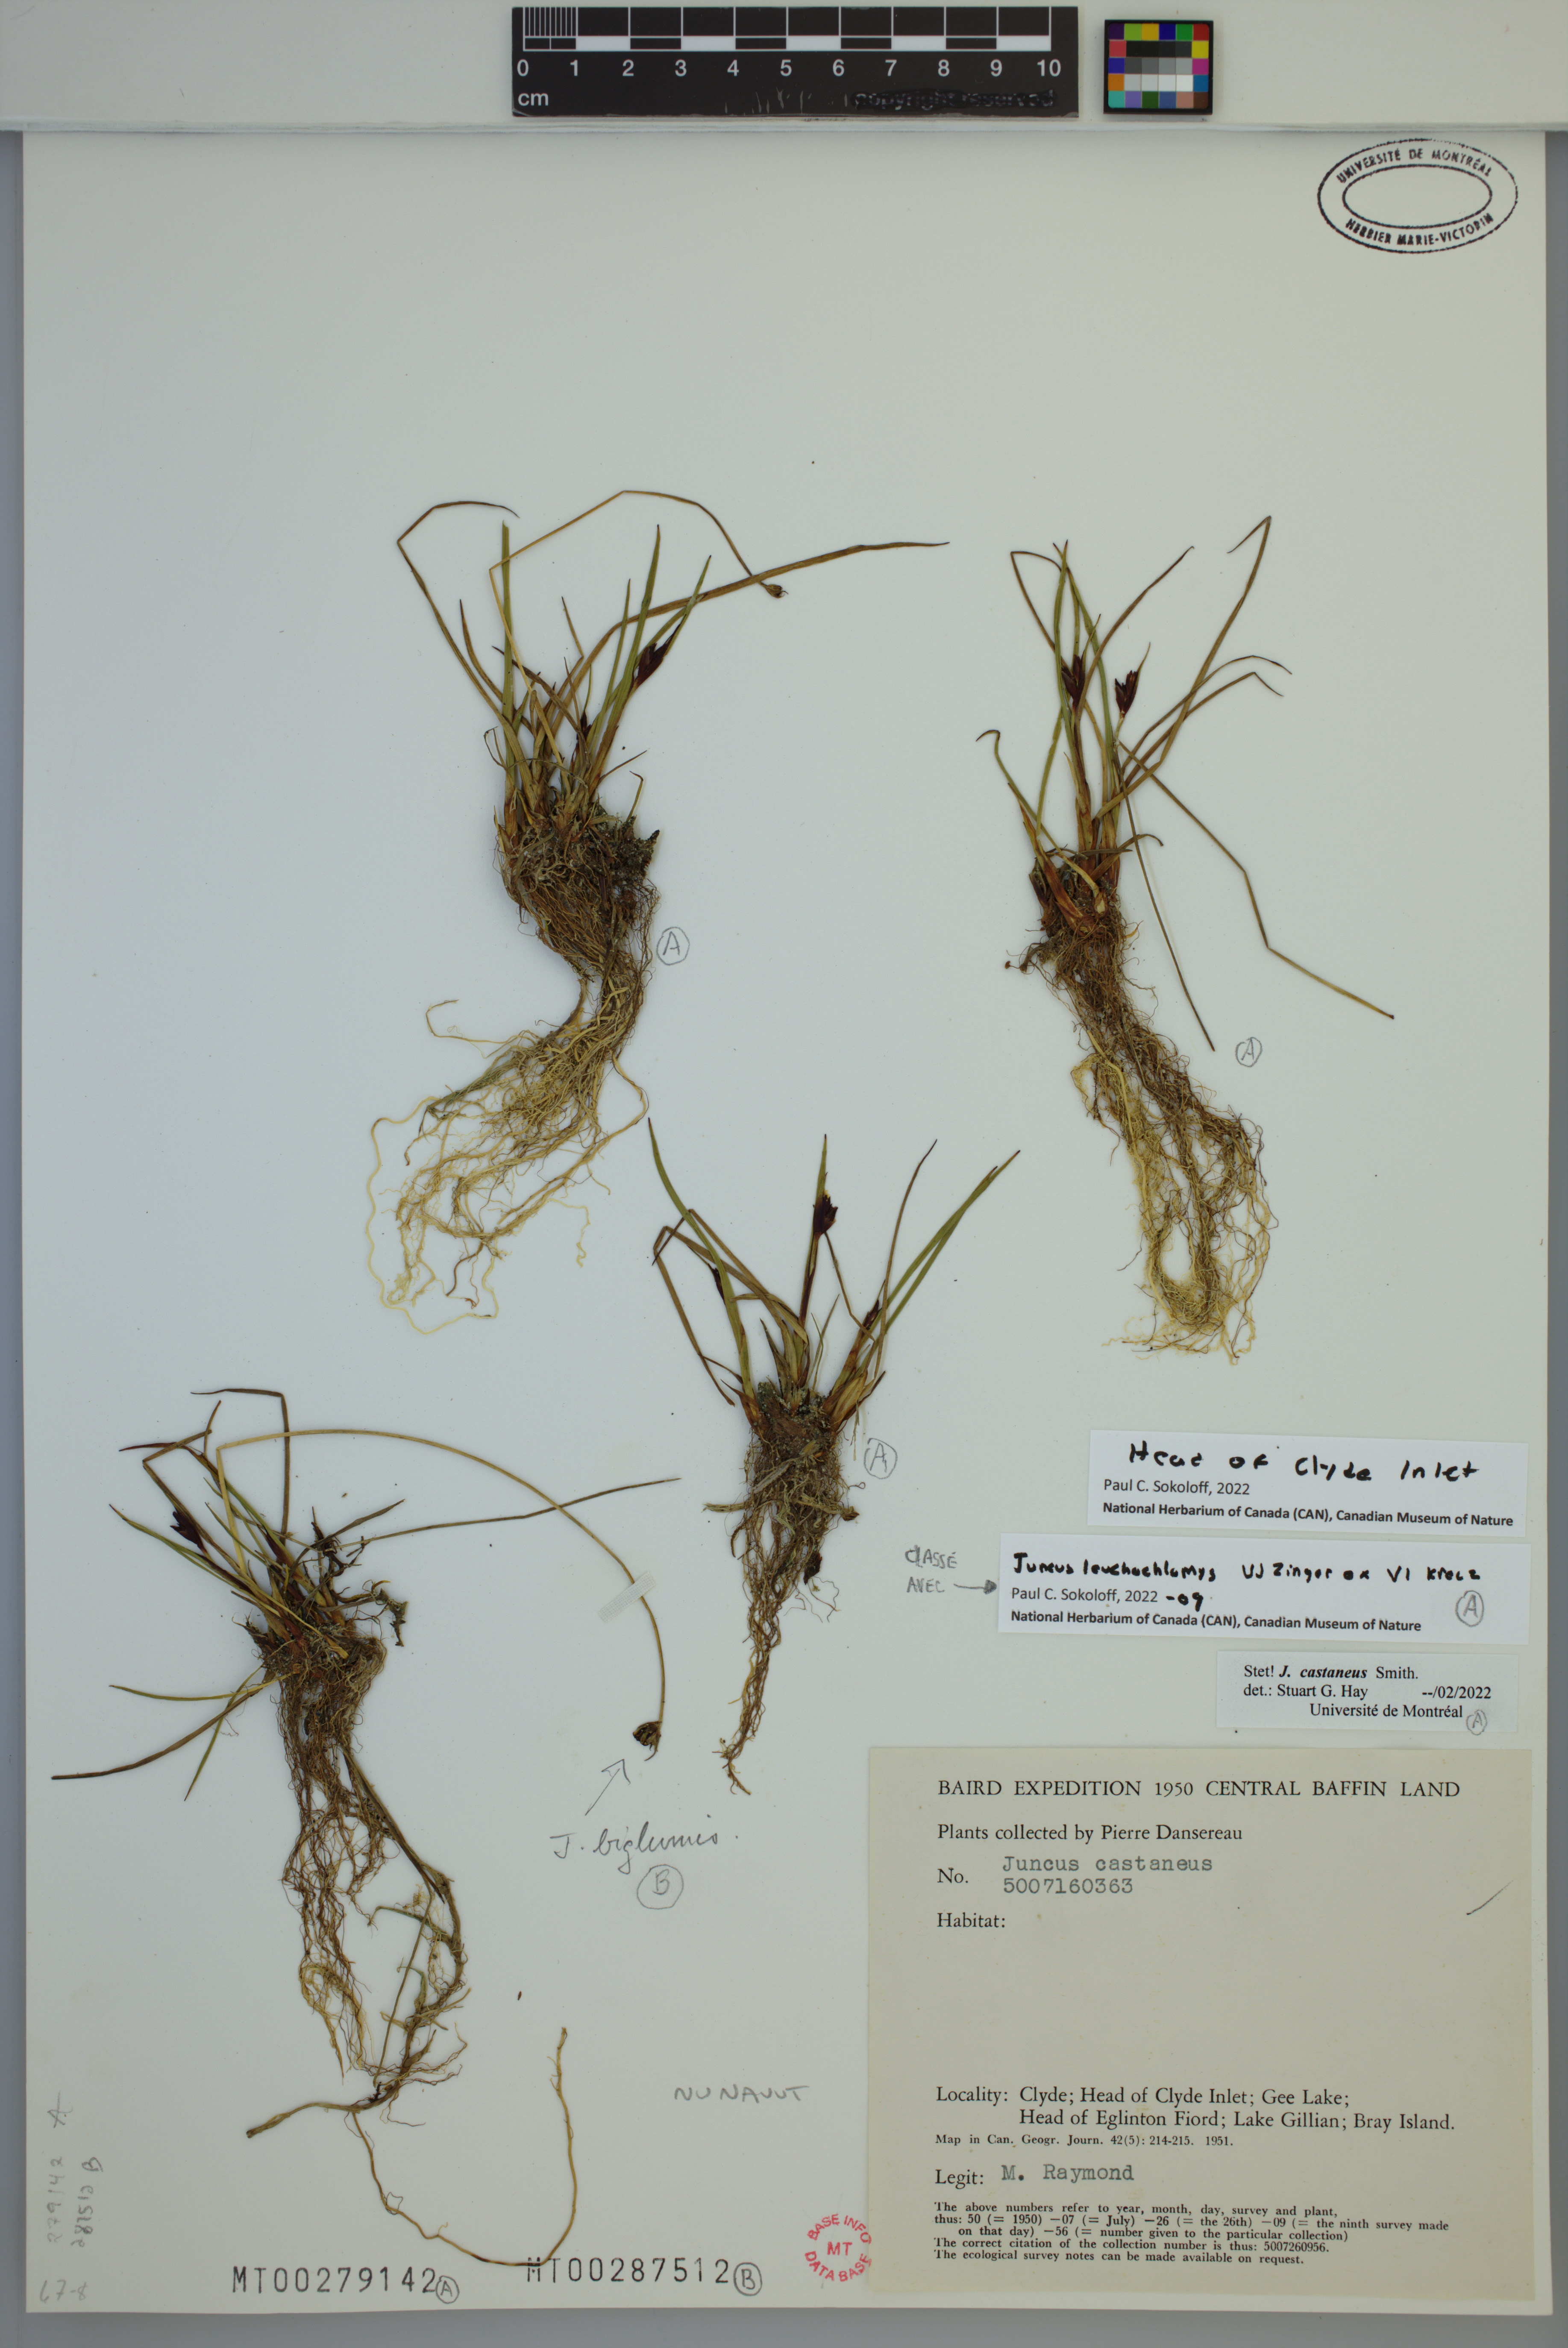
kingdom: Plantae
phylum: Tracheophyta
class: Liliopsida
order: Poales
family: Juncaceae
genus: Juncus
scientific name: Juncus castaneus
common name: Chestnut rush
